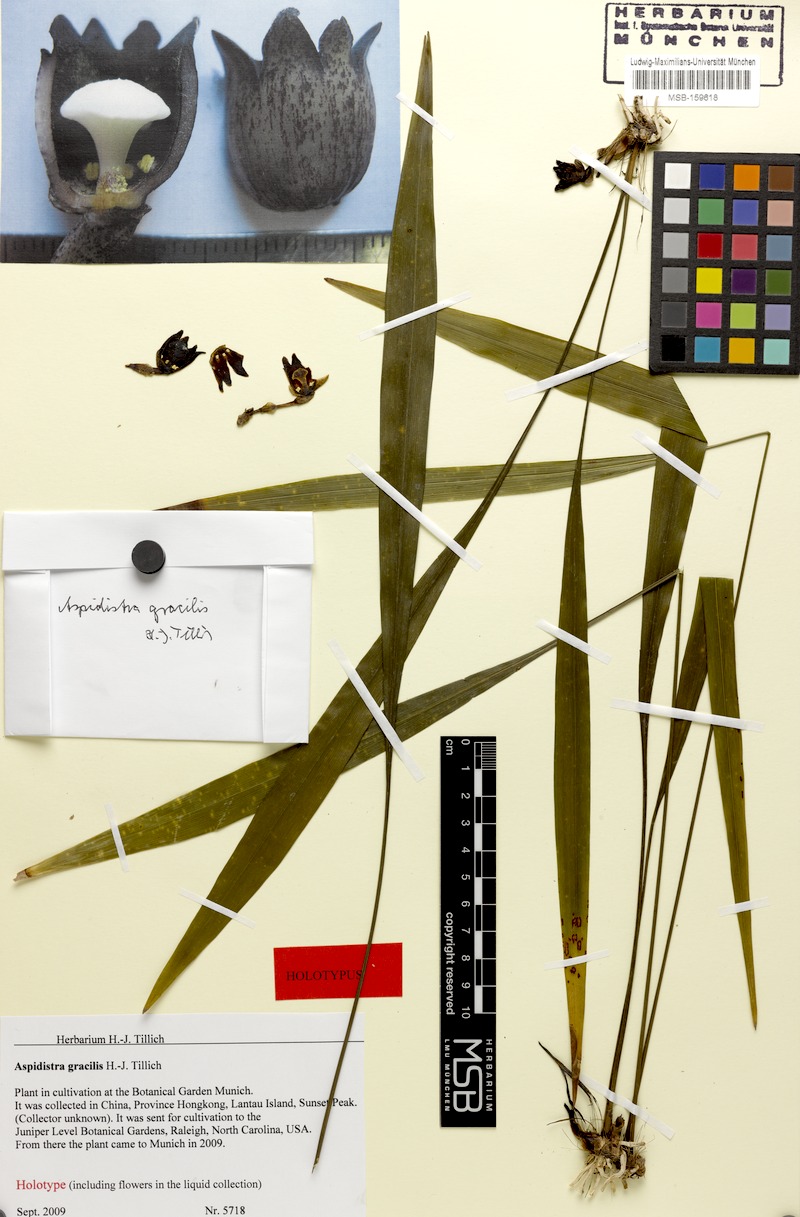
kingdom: Plantae
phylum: Tracheophyta
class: Liliopsida
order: Asparagales
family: Asparagaceae
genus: Aspidistra
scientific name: Aspidistra gracilis
